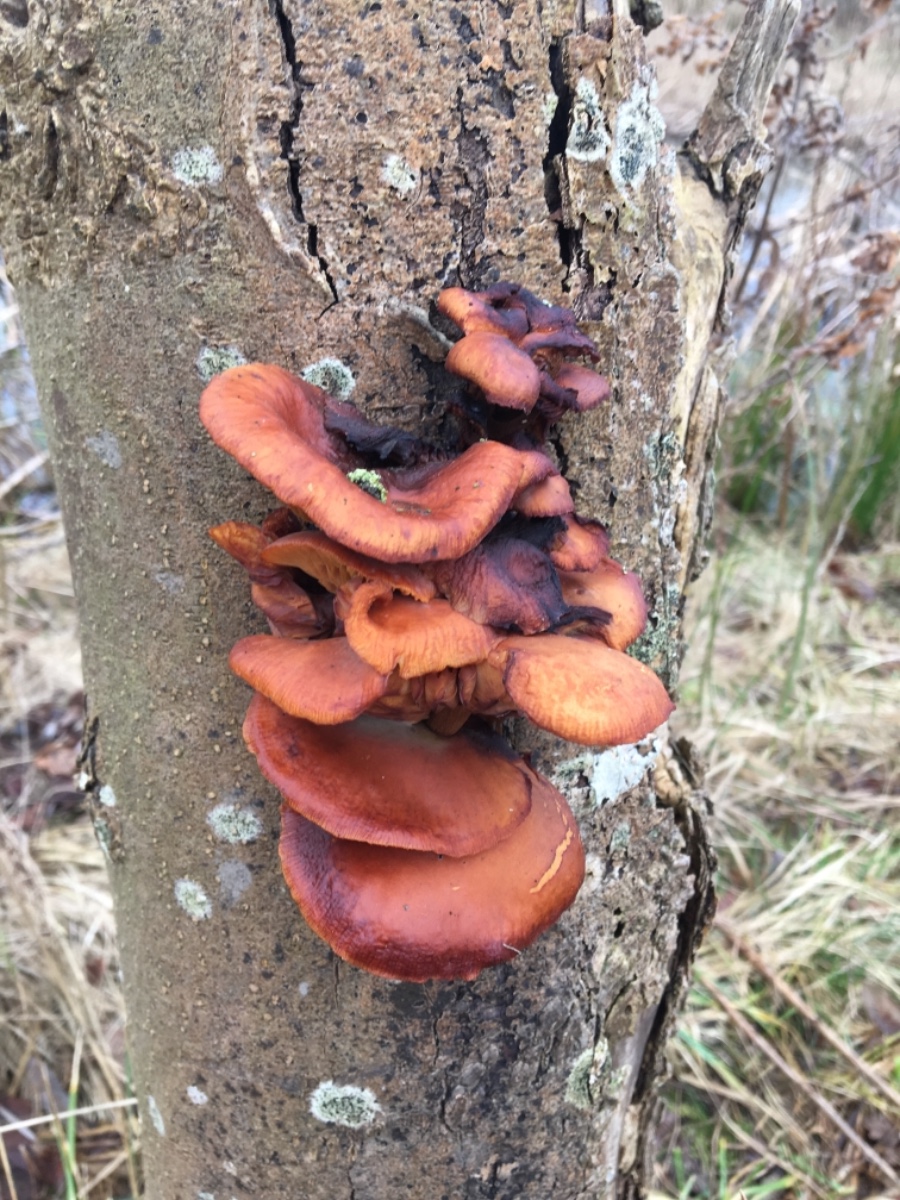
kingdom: Fungi
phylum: Basidiomycota
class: Agaricomycetes
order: Agaricales
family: Physalacriaceae
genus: Flammulina
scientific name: Flammulina
